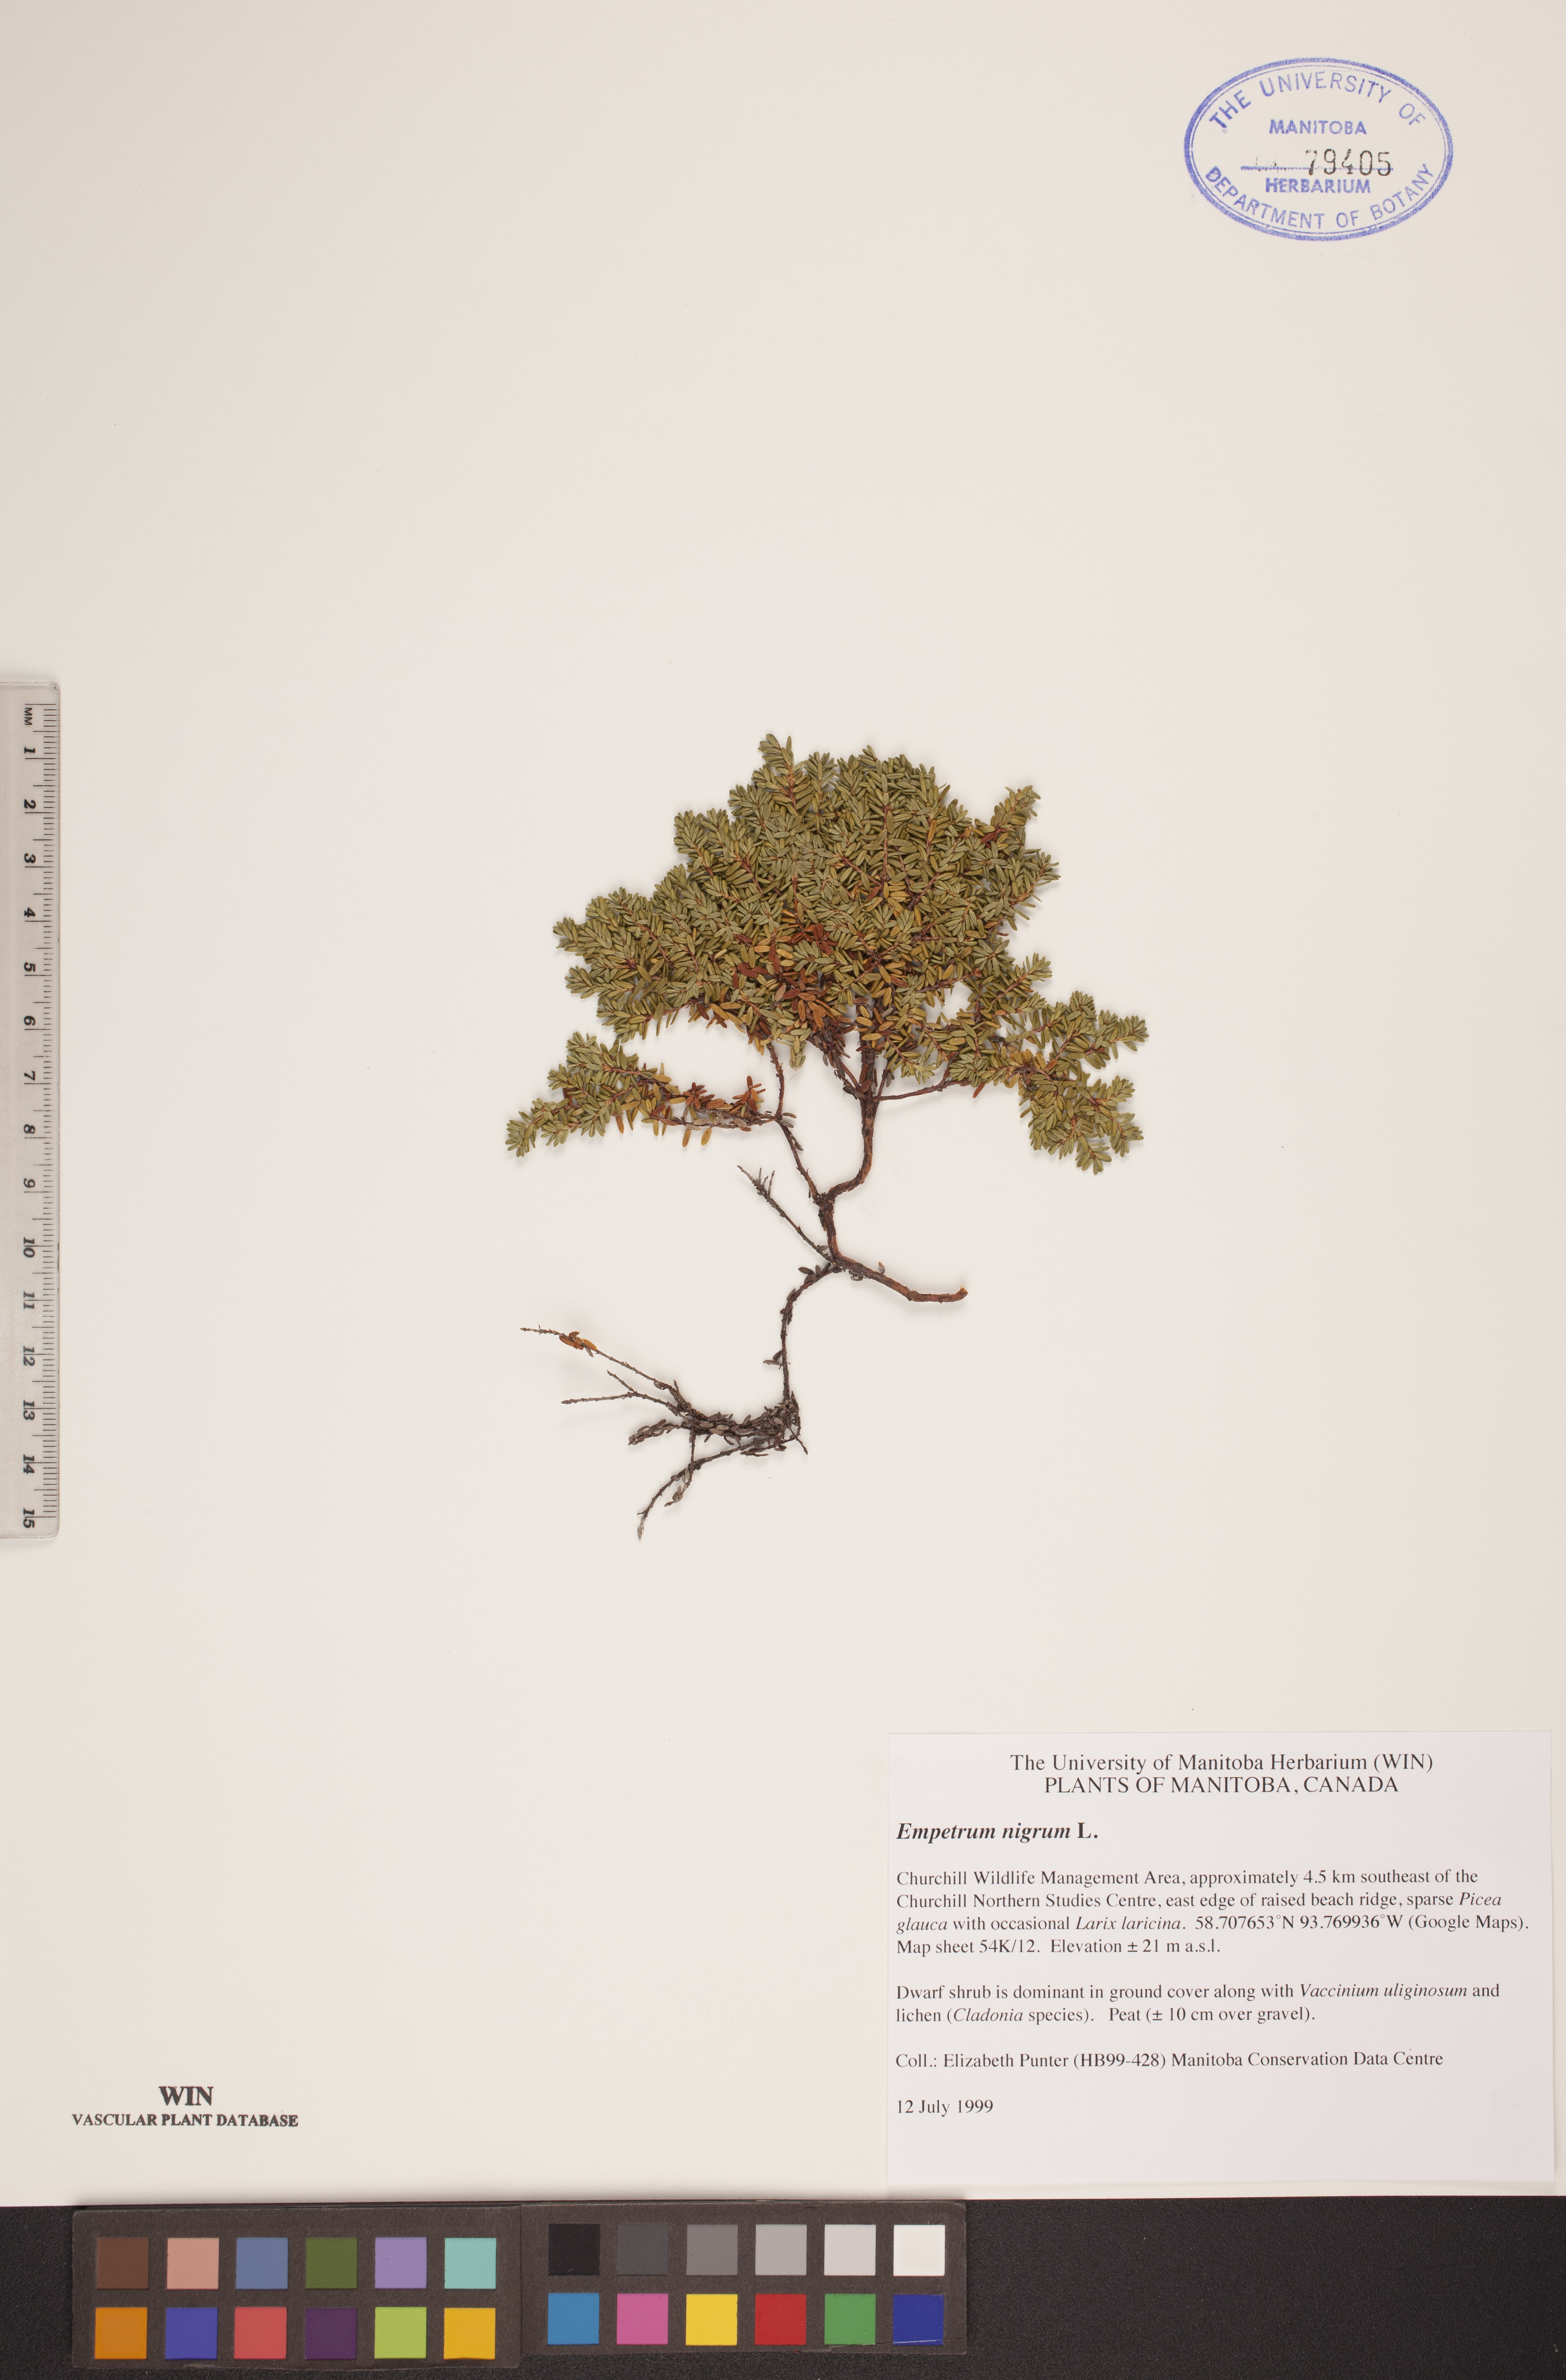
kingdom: Plantae
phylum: Tracheophyta
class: Magnoliopsida
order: Ericales
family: Ericaceae
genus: Empetrum
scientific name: Empetrum nigrum
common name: Black crowberry
